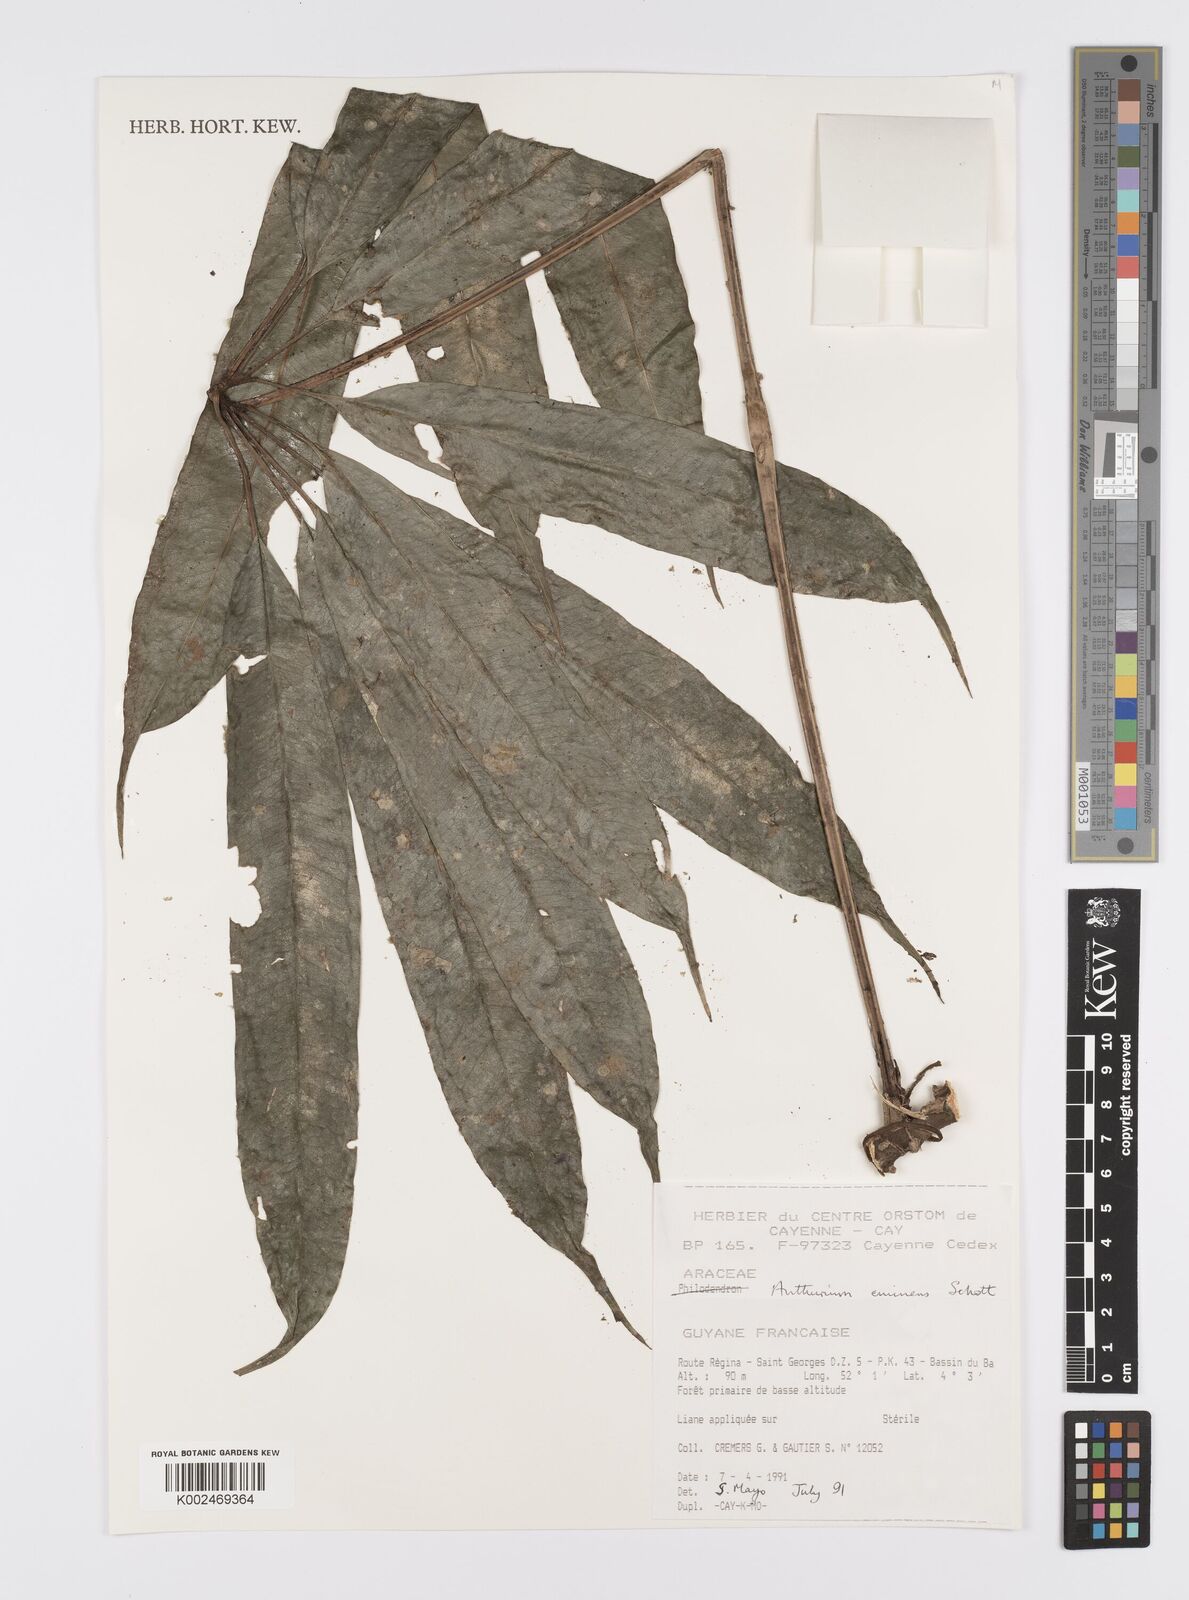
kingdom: Plantae
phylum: Tracheophyta
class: Liliopsida
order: Alismatales
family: Araceae
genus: Anthurium
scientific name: Anthurium
